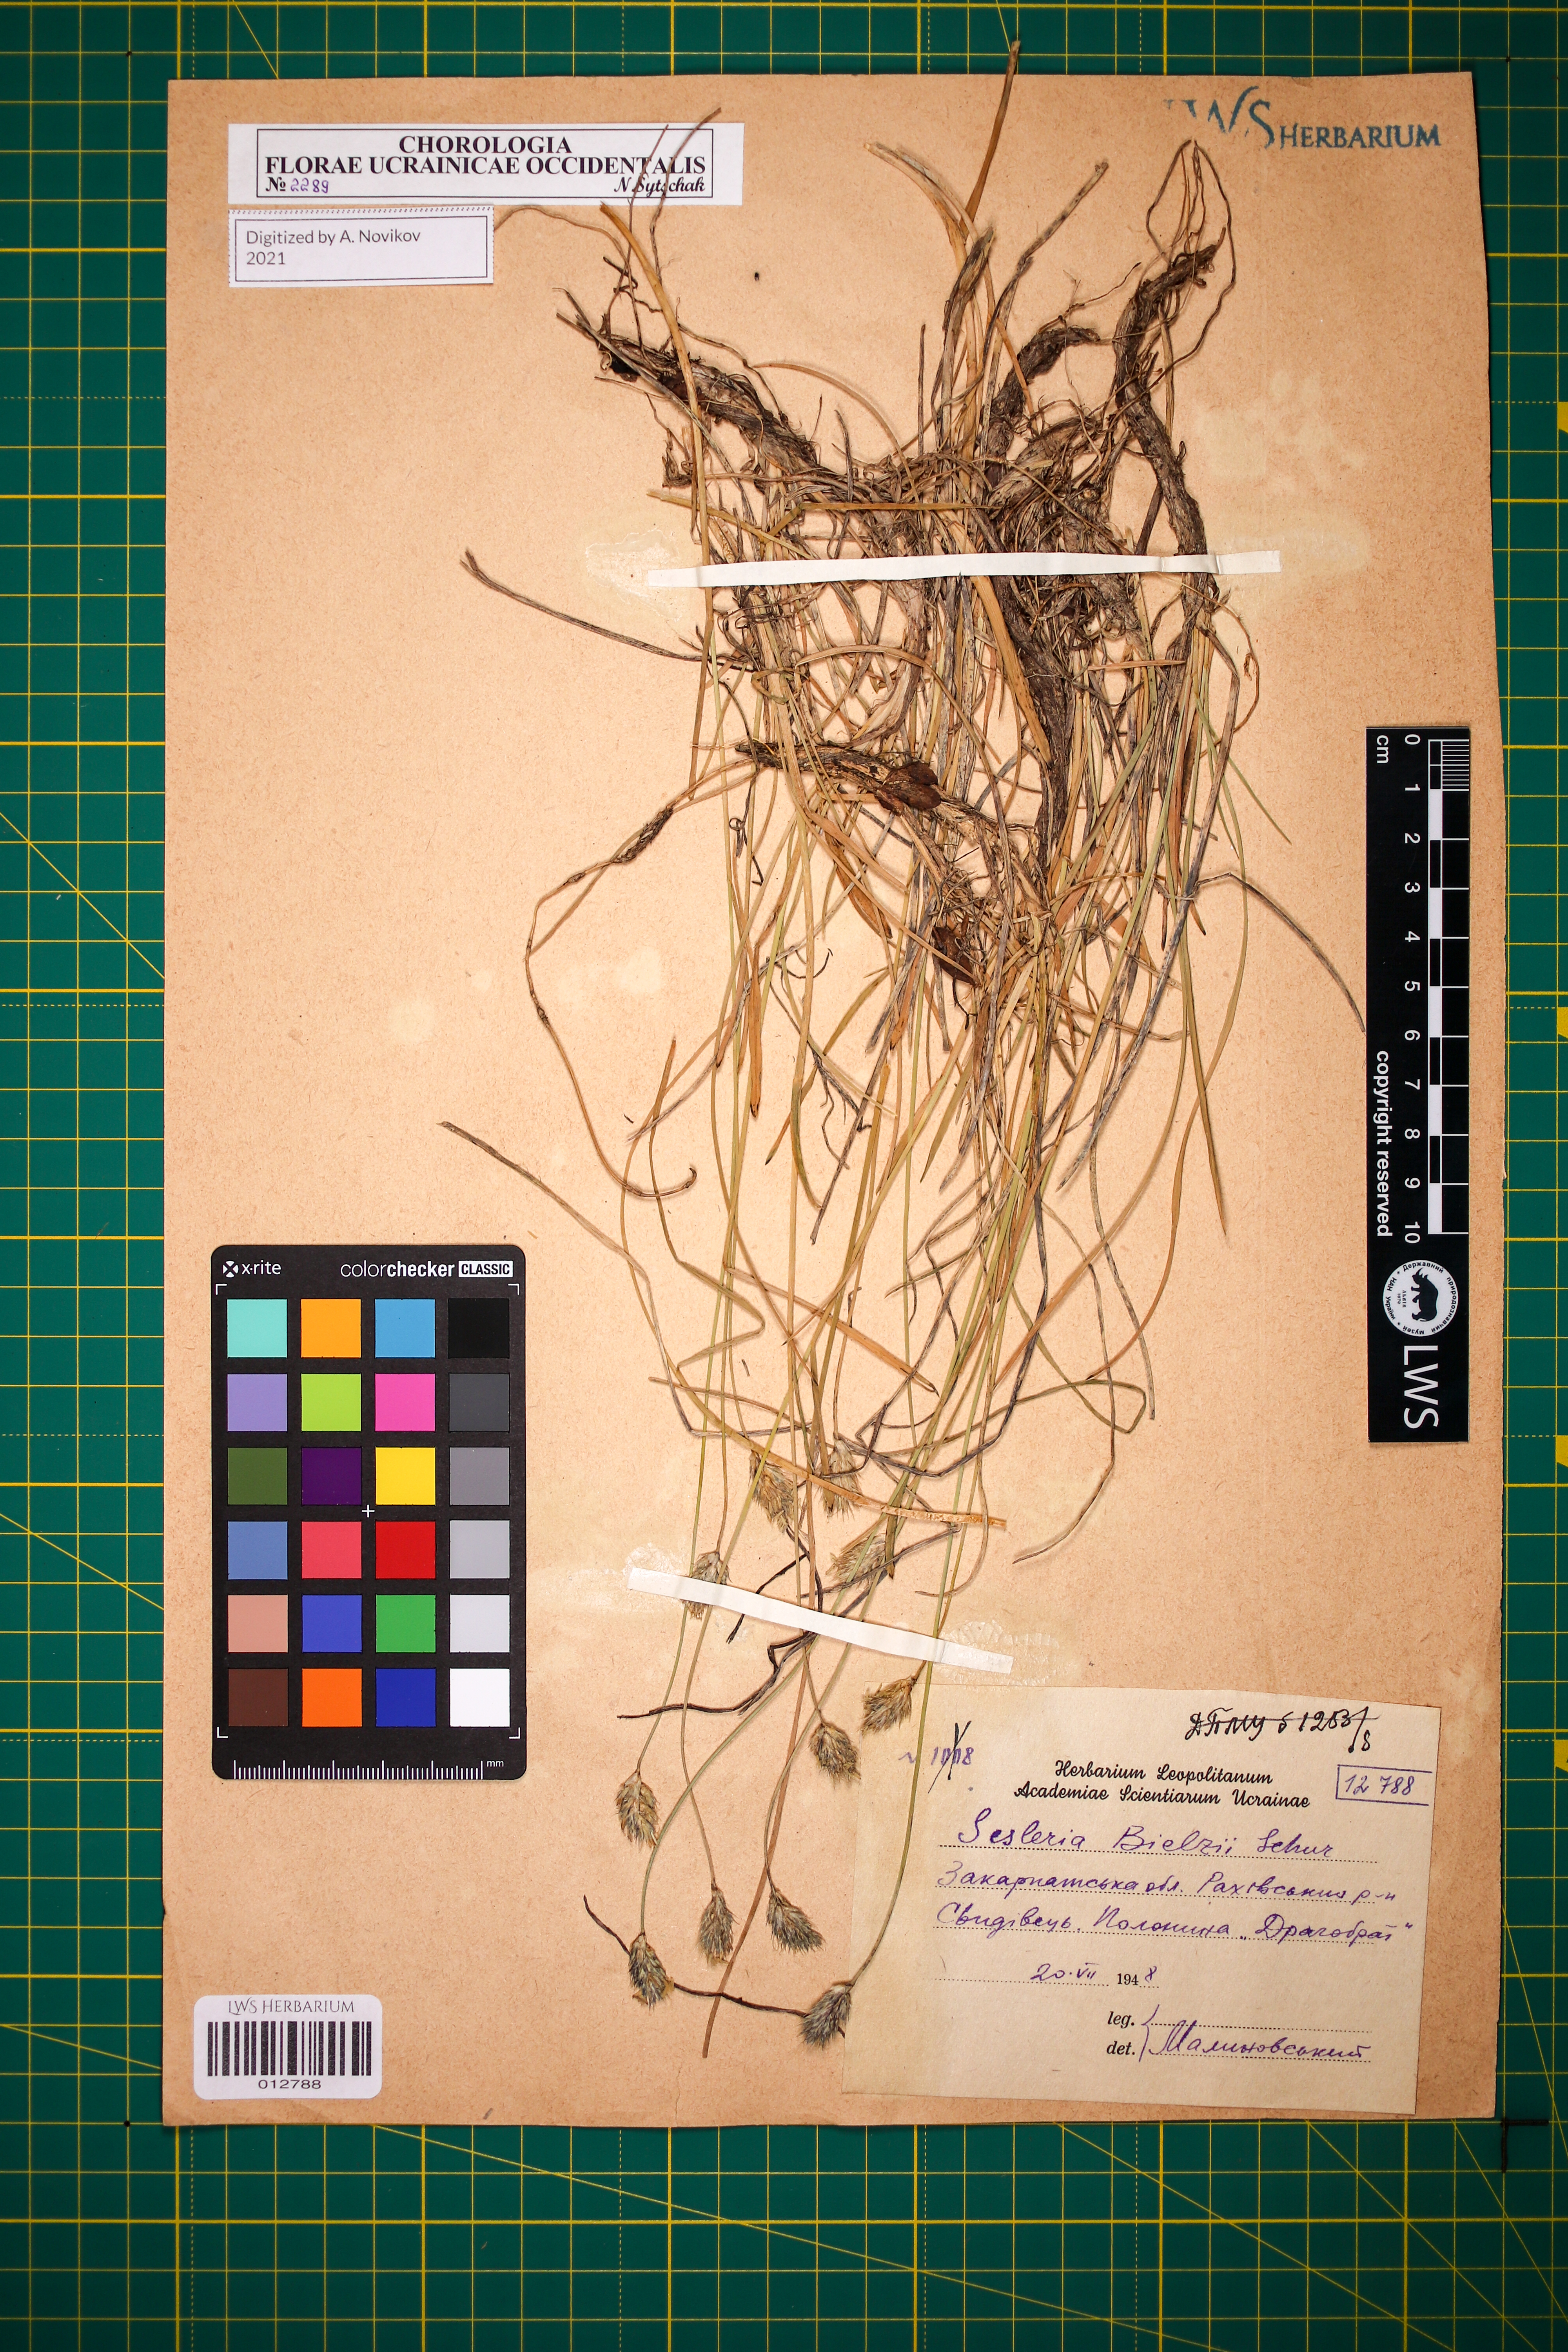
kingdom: Plantae
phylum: Tracheophyta
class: Liliopsida
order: Poales
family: Poaceae
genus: Sesleria
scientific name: Sesleria bielzii
